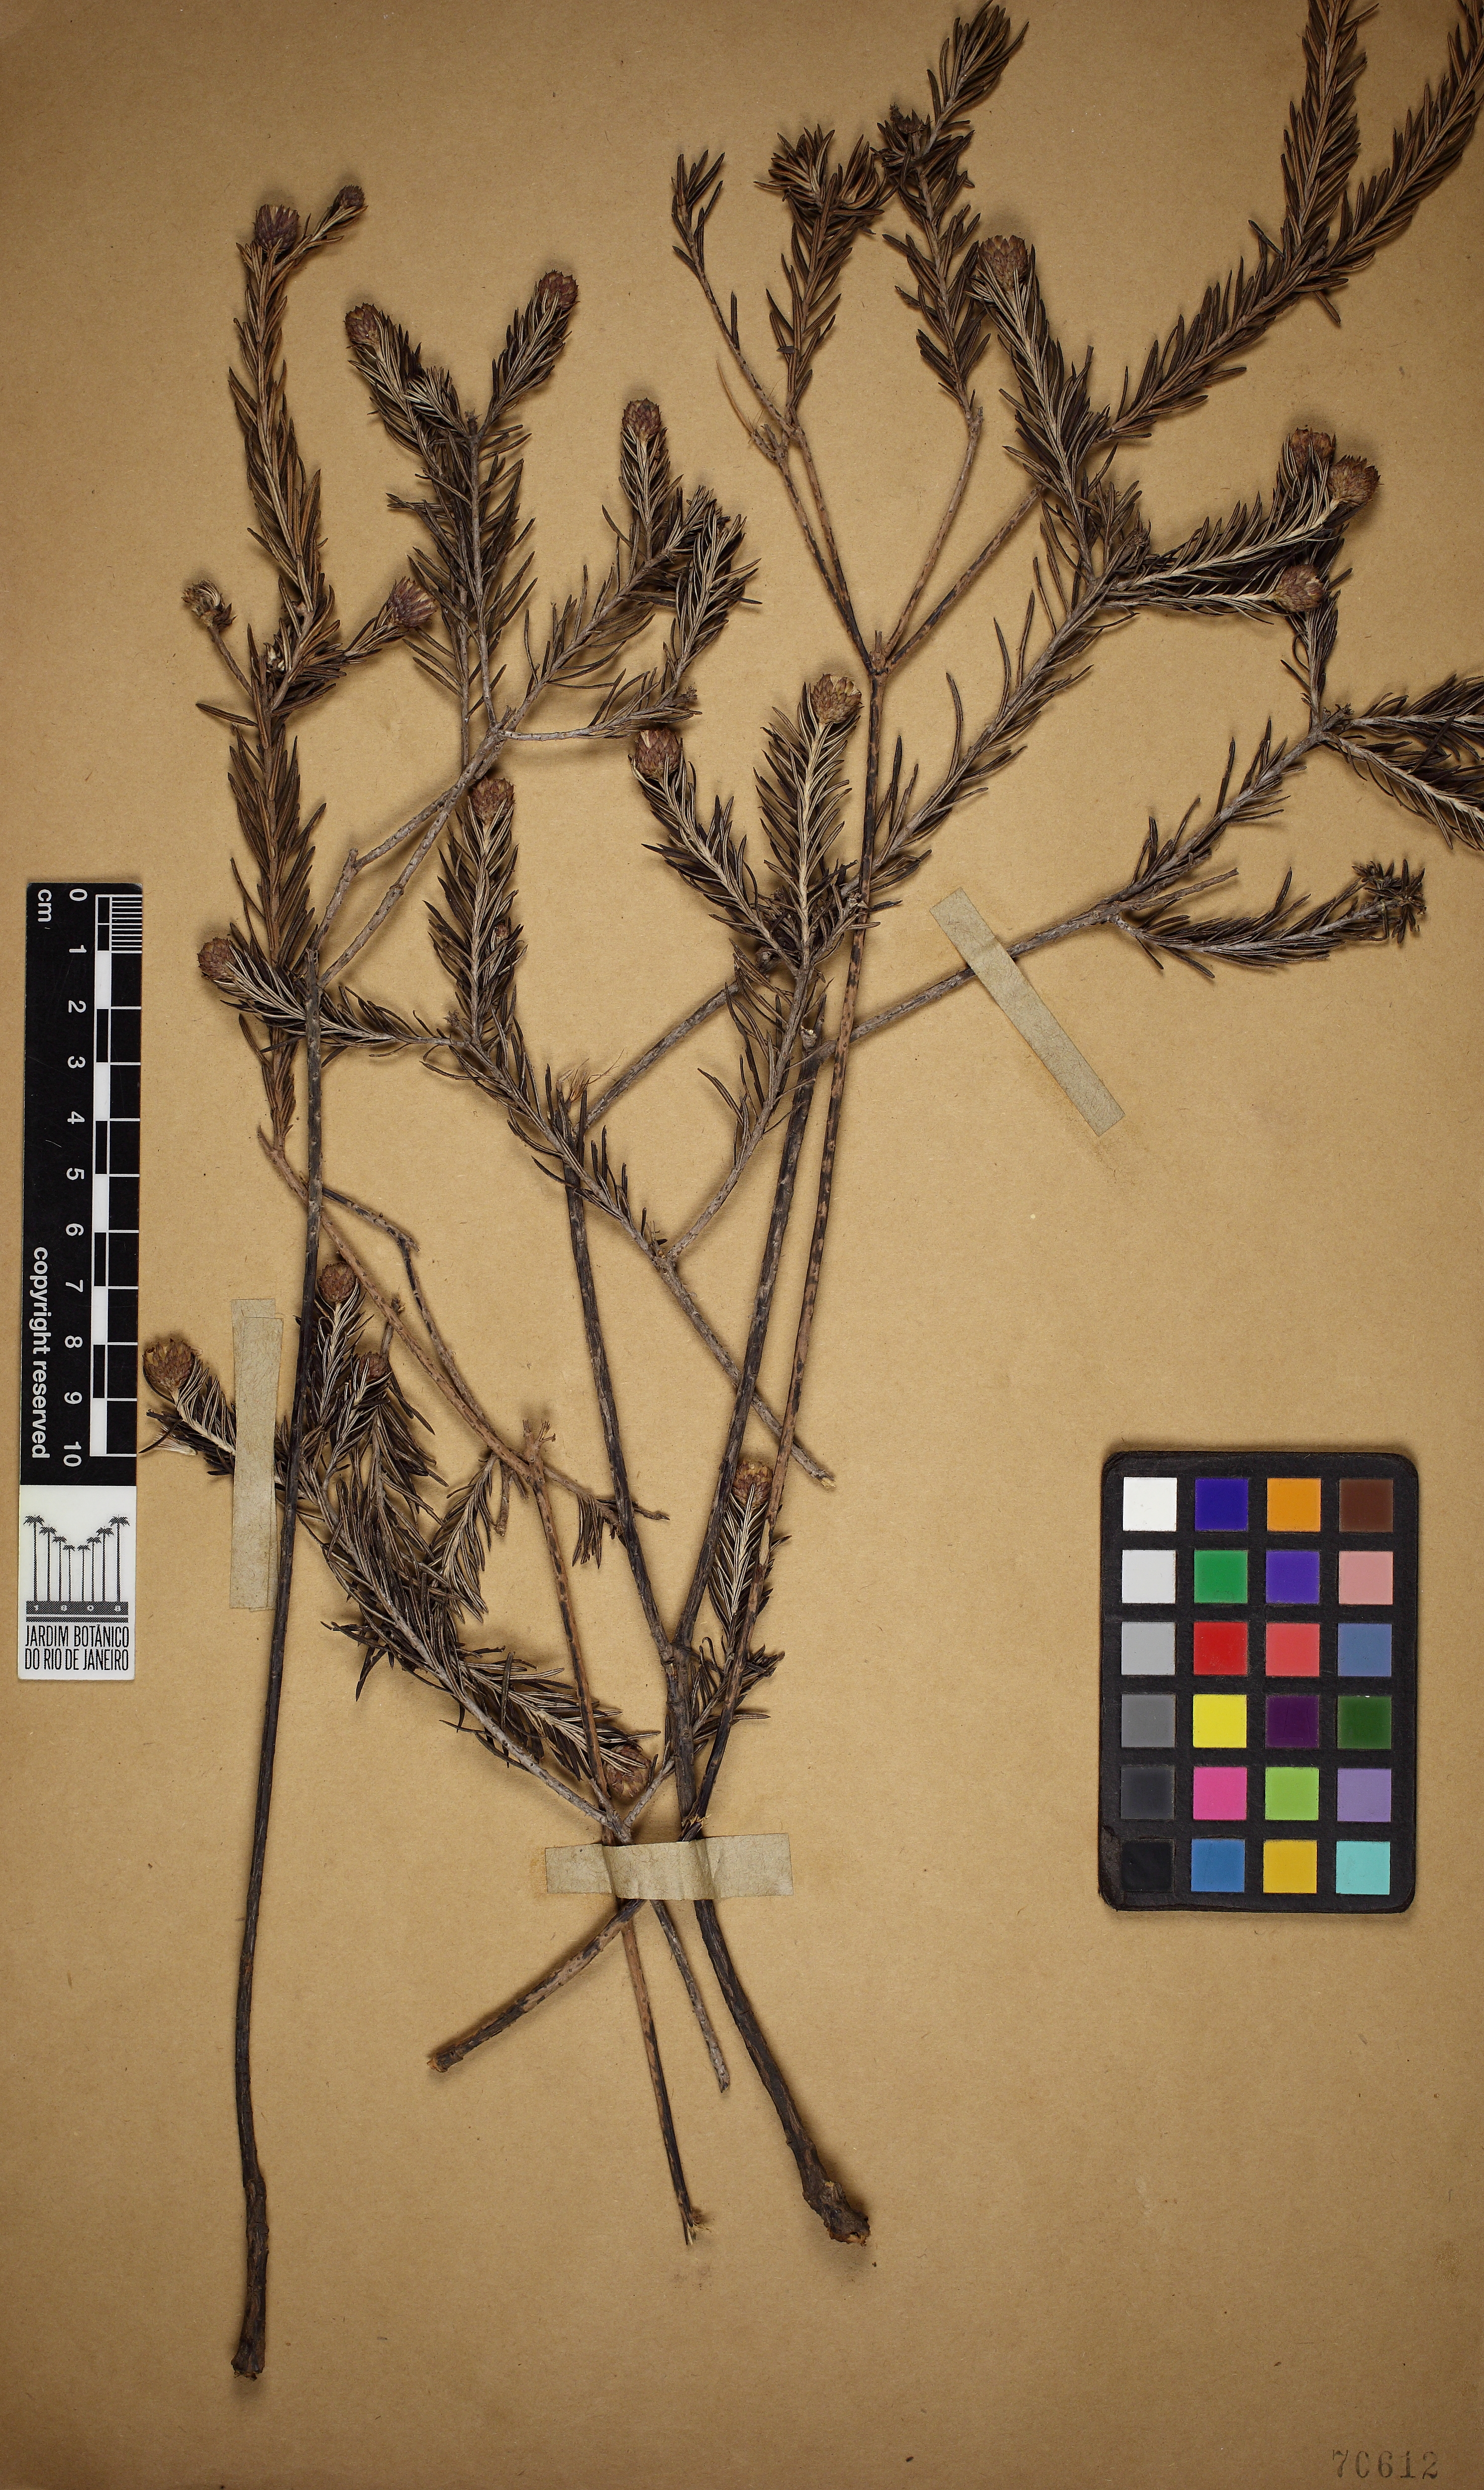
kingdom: Plantae
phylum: Tracheophyta
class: Magnoliopsida
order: Asterales
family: Asteraceae
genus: Lessingianthus
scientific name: Lessingianthus stoechas
